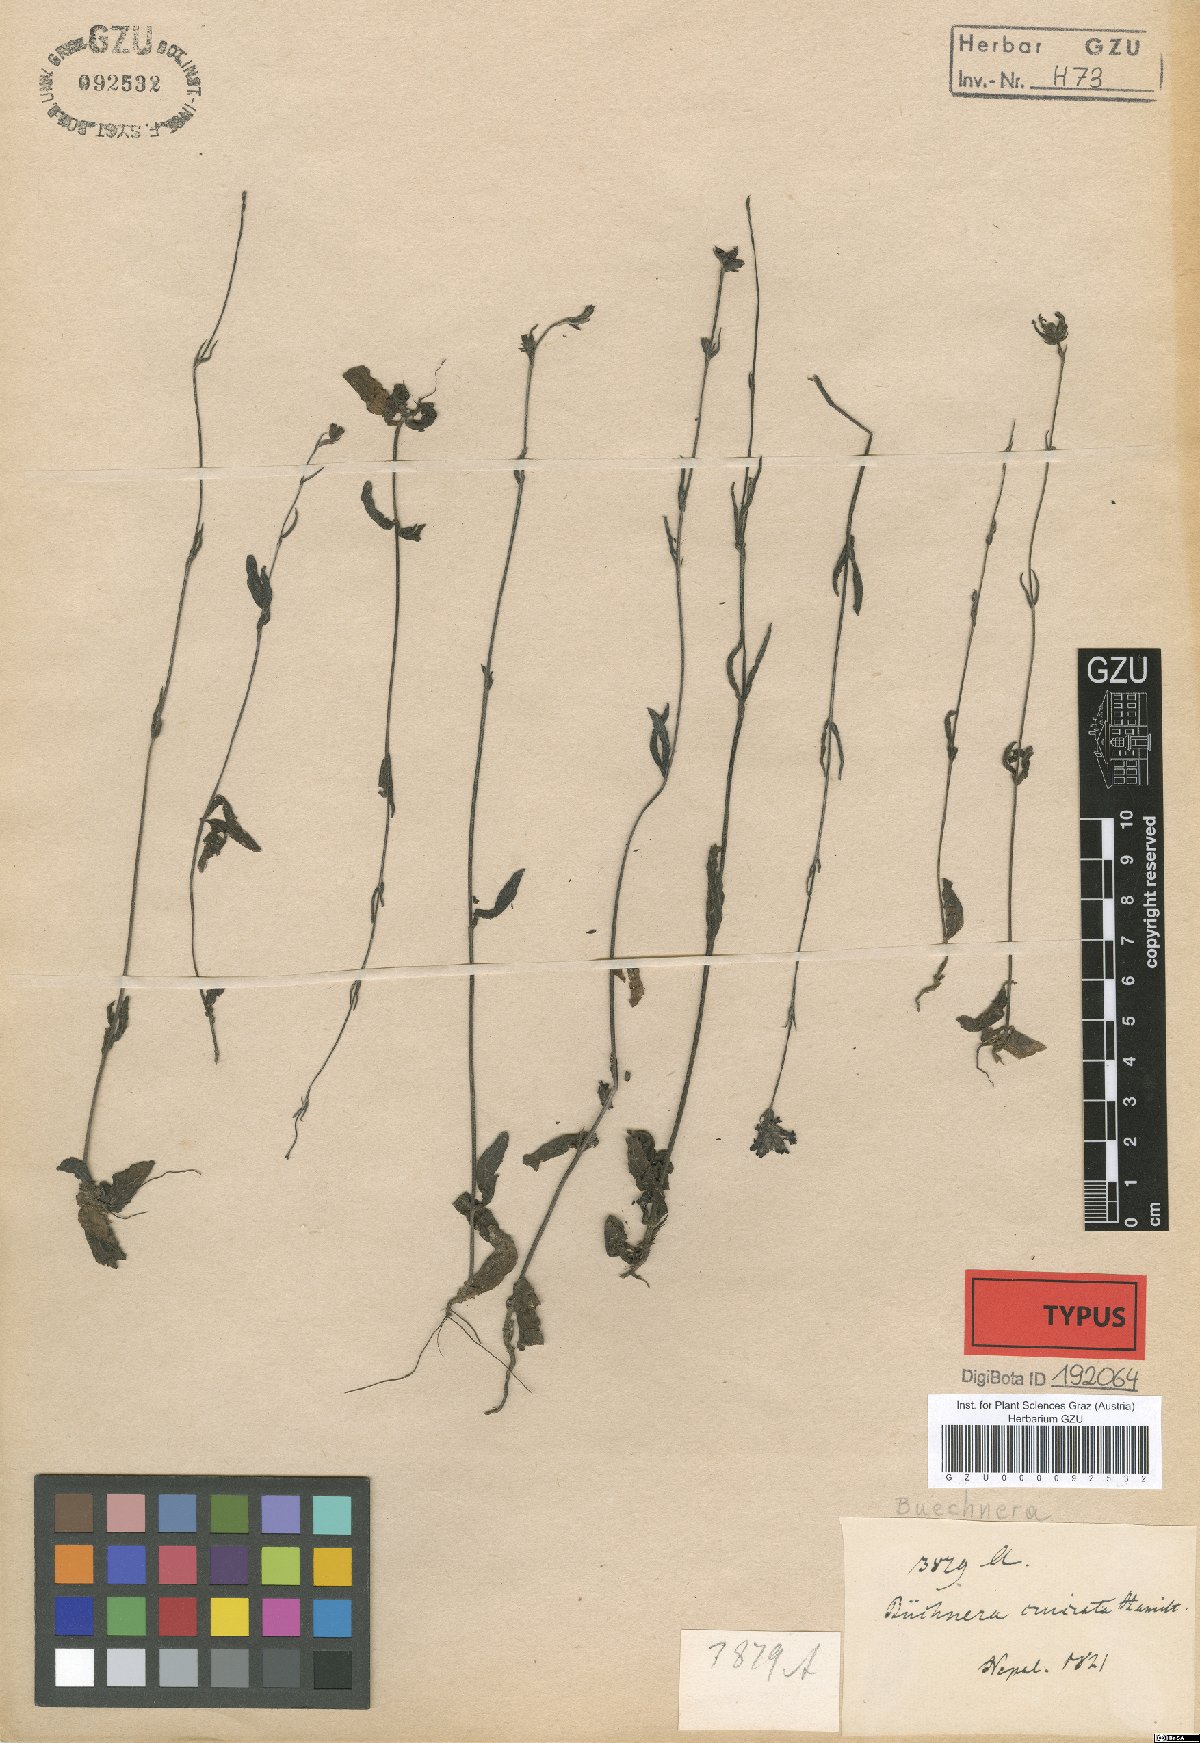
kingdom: Plantae
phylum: Tracheophyta
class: Magnoliopsida
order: Lamiales
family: Orobanchaceae
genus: Buchnera
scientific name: Buchnera cruciata
